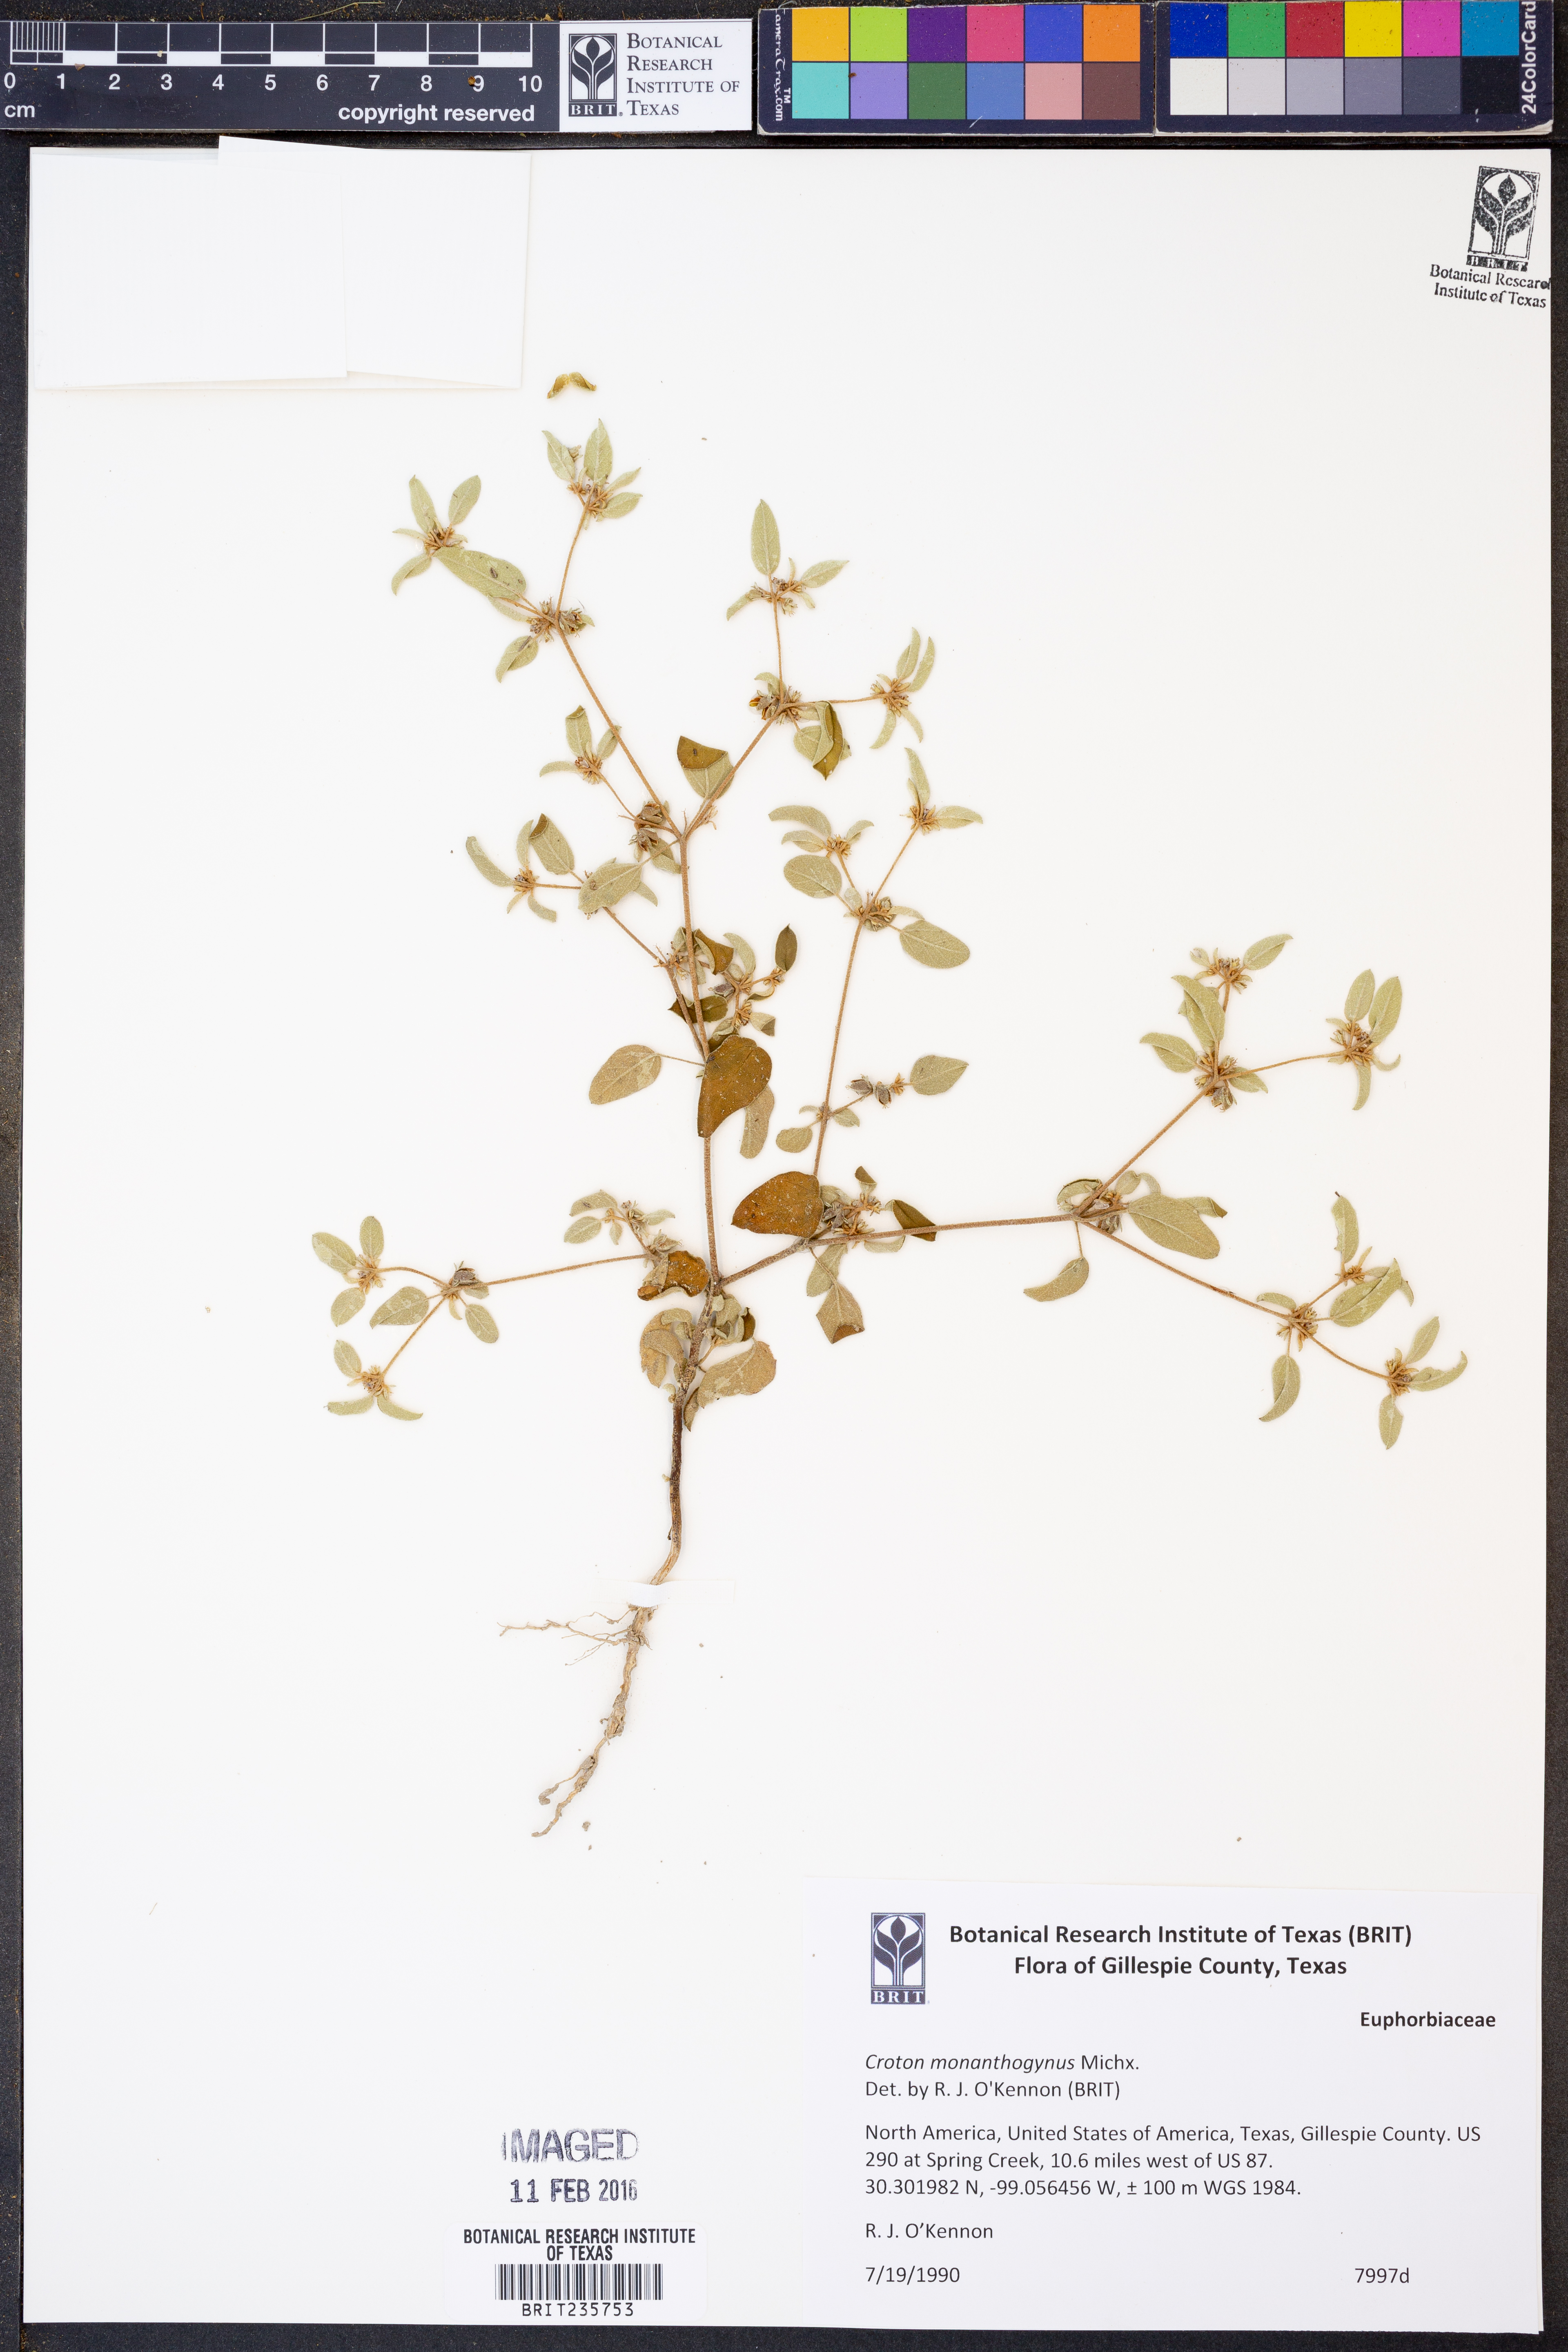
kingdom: Plantae
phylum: Tracheophyta
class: Magnoliopsida
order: Malpighiales
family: Euphorbiaceae
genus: Croton
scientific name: Croton monanthogynus
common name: One-seed croton
